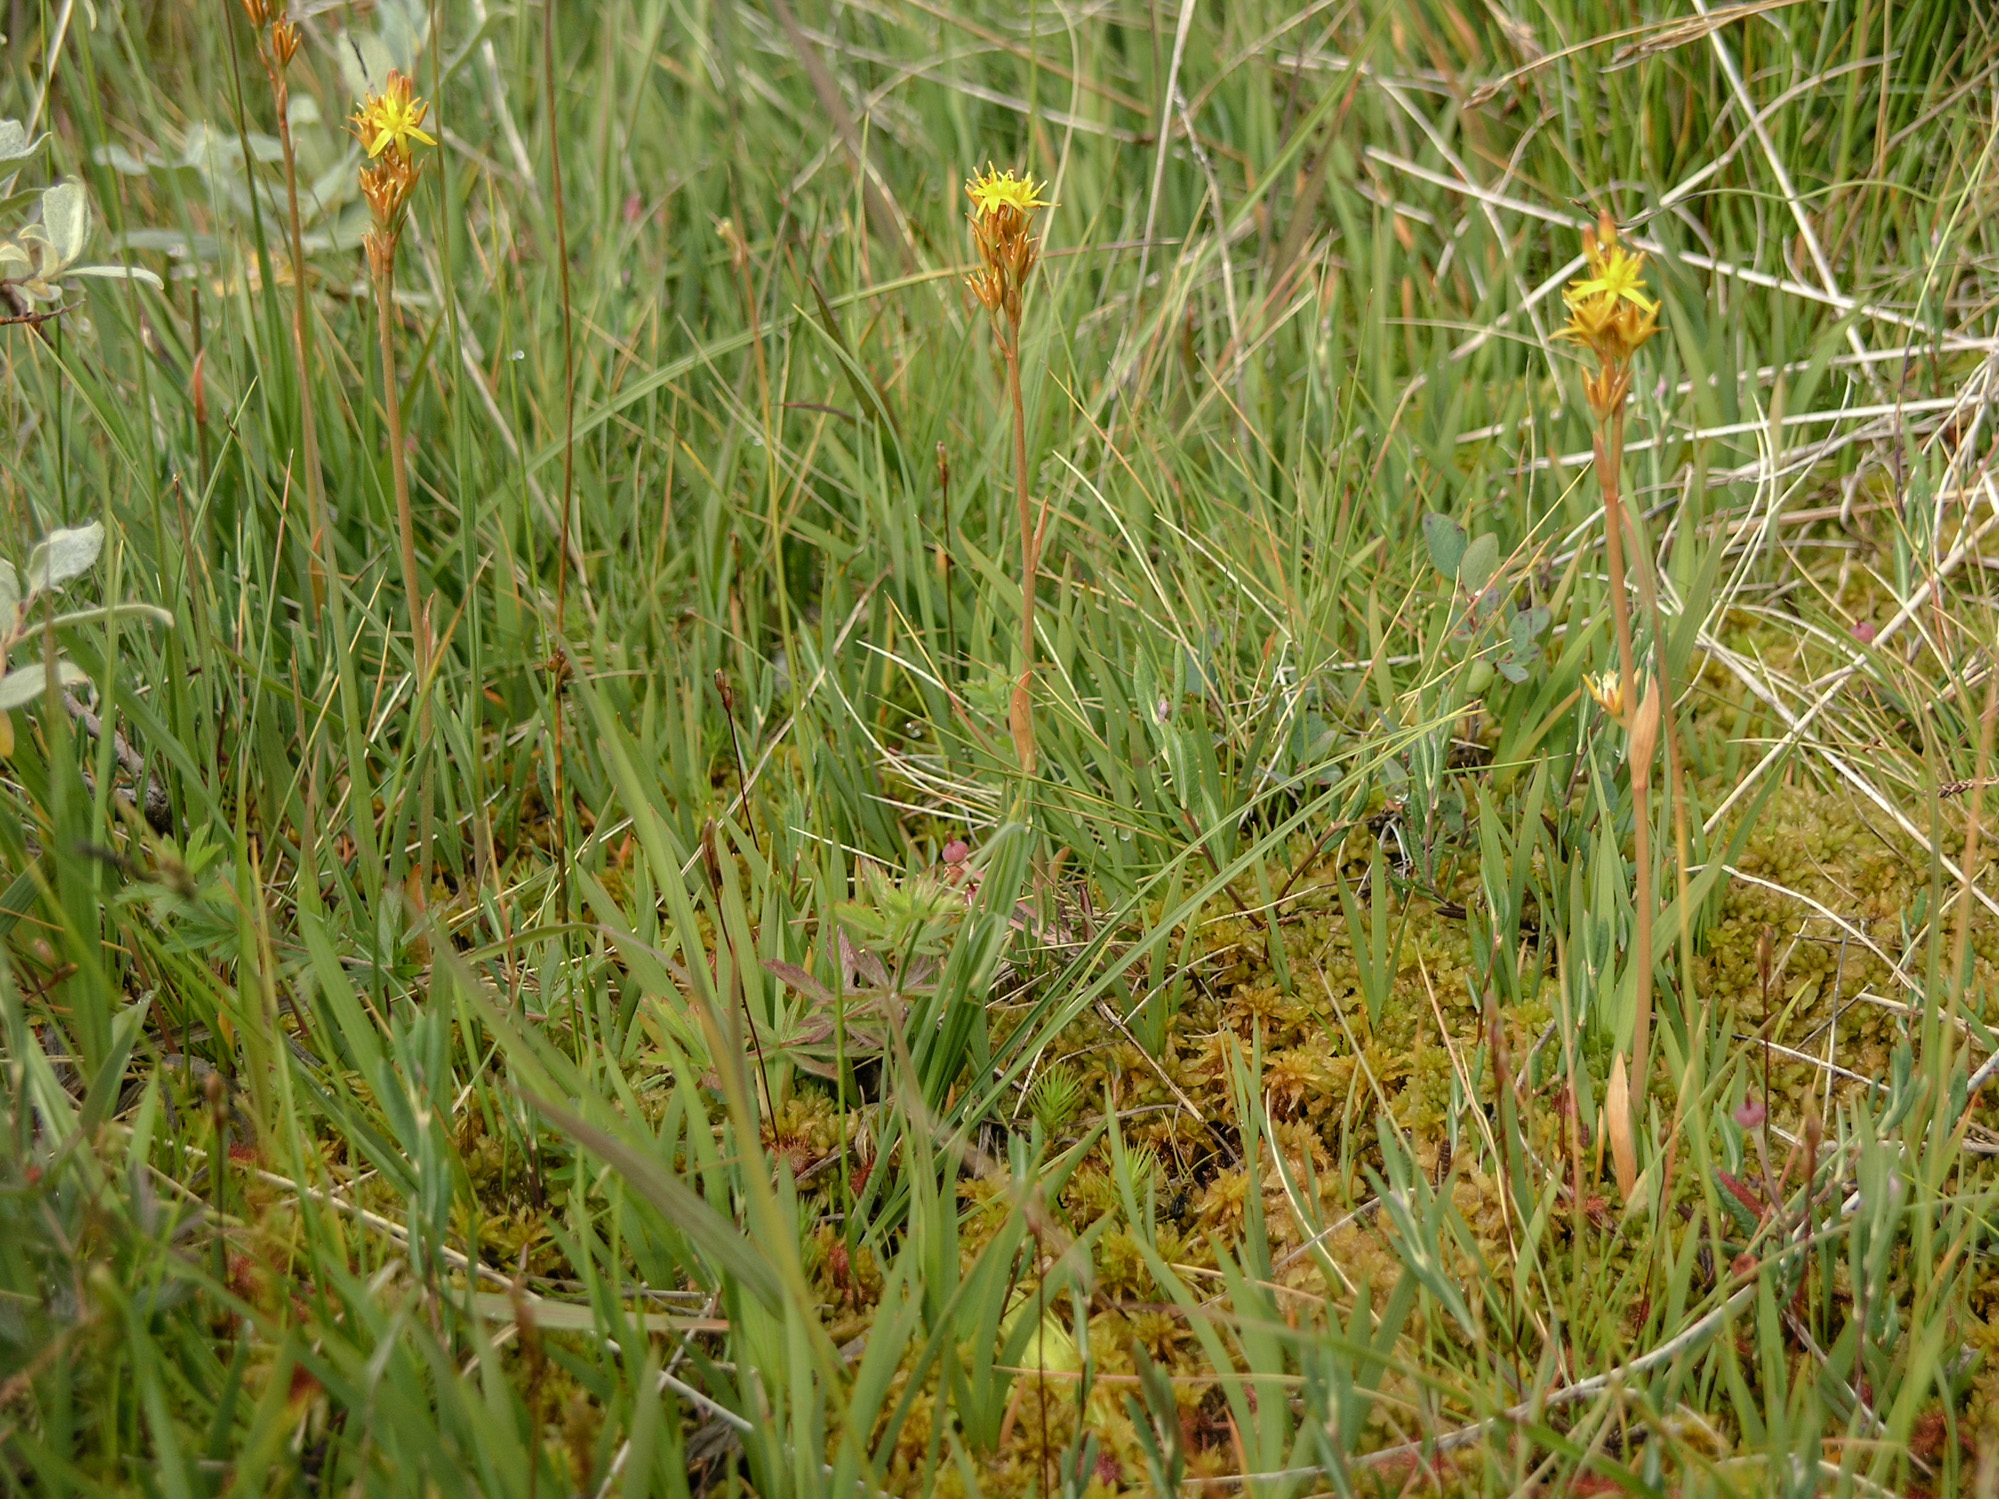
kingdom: Plantae
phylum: Tracheophyta
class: Liliopsida
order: Dioscoreales
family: Nartheciaceae
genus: Narthecium
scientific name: Narthecium ossifragum
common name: Bog asphodel
